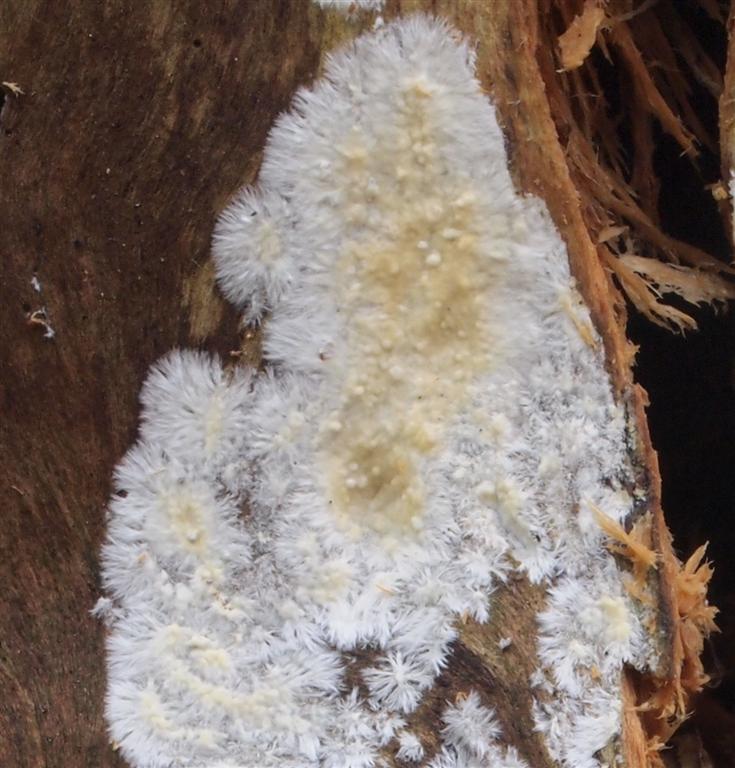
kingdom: Fungi
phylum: Basidiomycota
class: Agaricomycetes
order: Russulales
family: Peniophoraceae
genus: Gloiothele
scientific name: Gloiothele citrina
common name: citronskorpe
